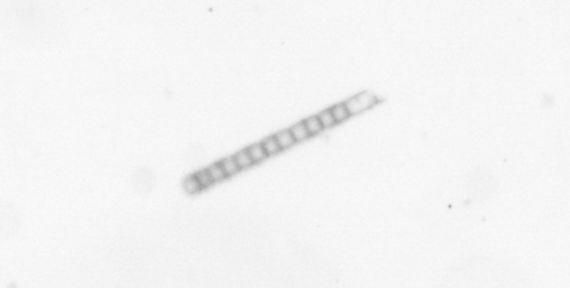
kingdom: Chromista
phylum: Ochrophyta
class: Bacillariophyceae
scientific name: Bacillariophyceae
